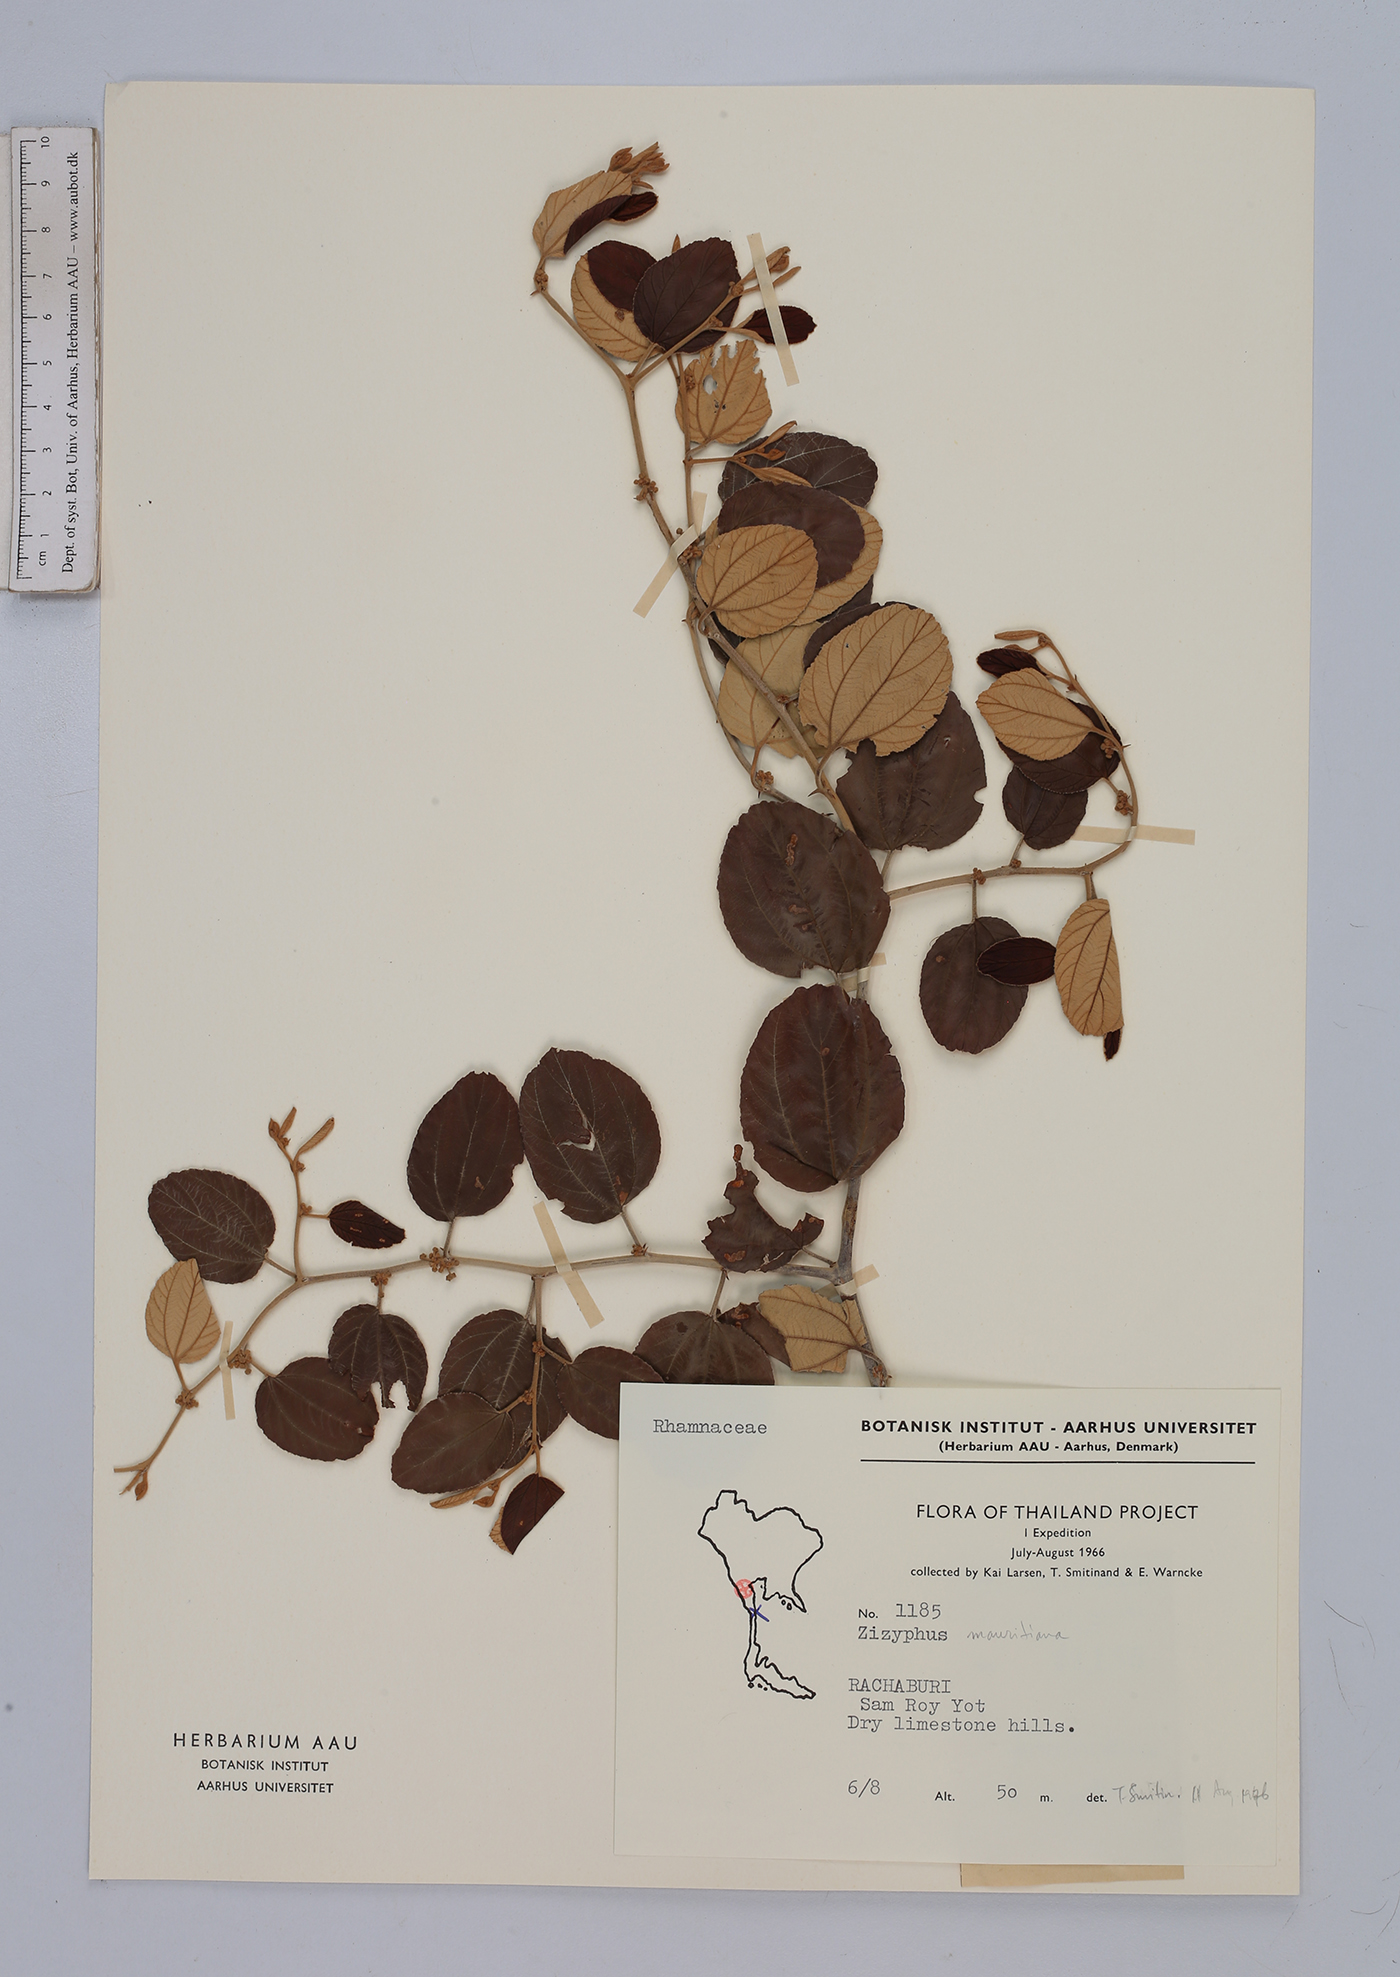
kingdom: Plantae
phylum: Tracheophyta
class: Magnoliopsida
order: Rosales
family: Rhamnaceae
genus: Ziziphus
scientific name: Ziziphus mauritiana
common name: Indian jujube
